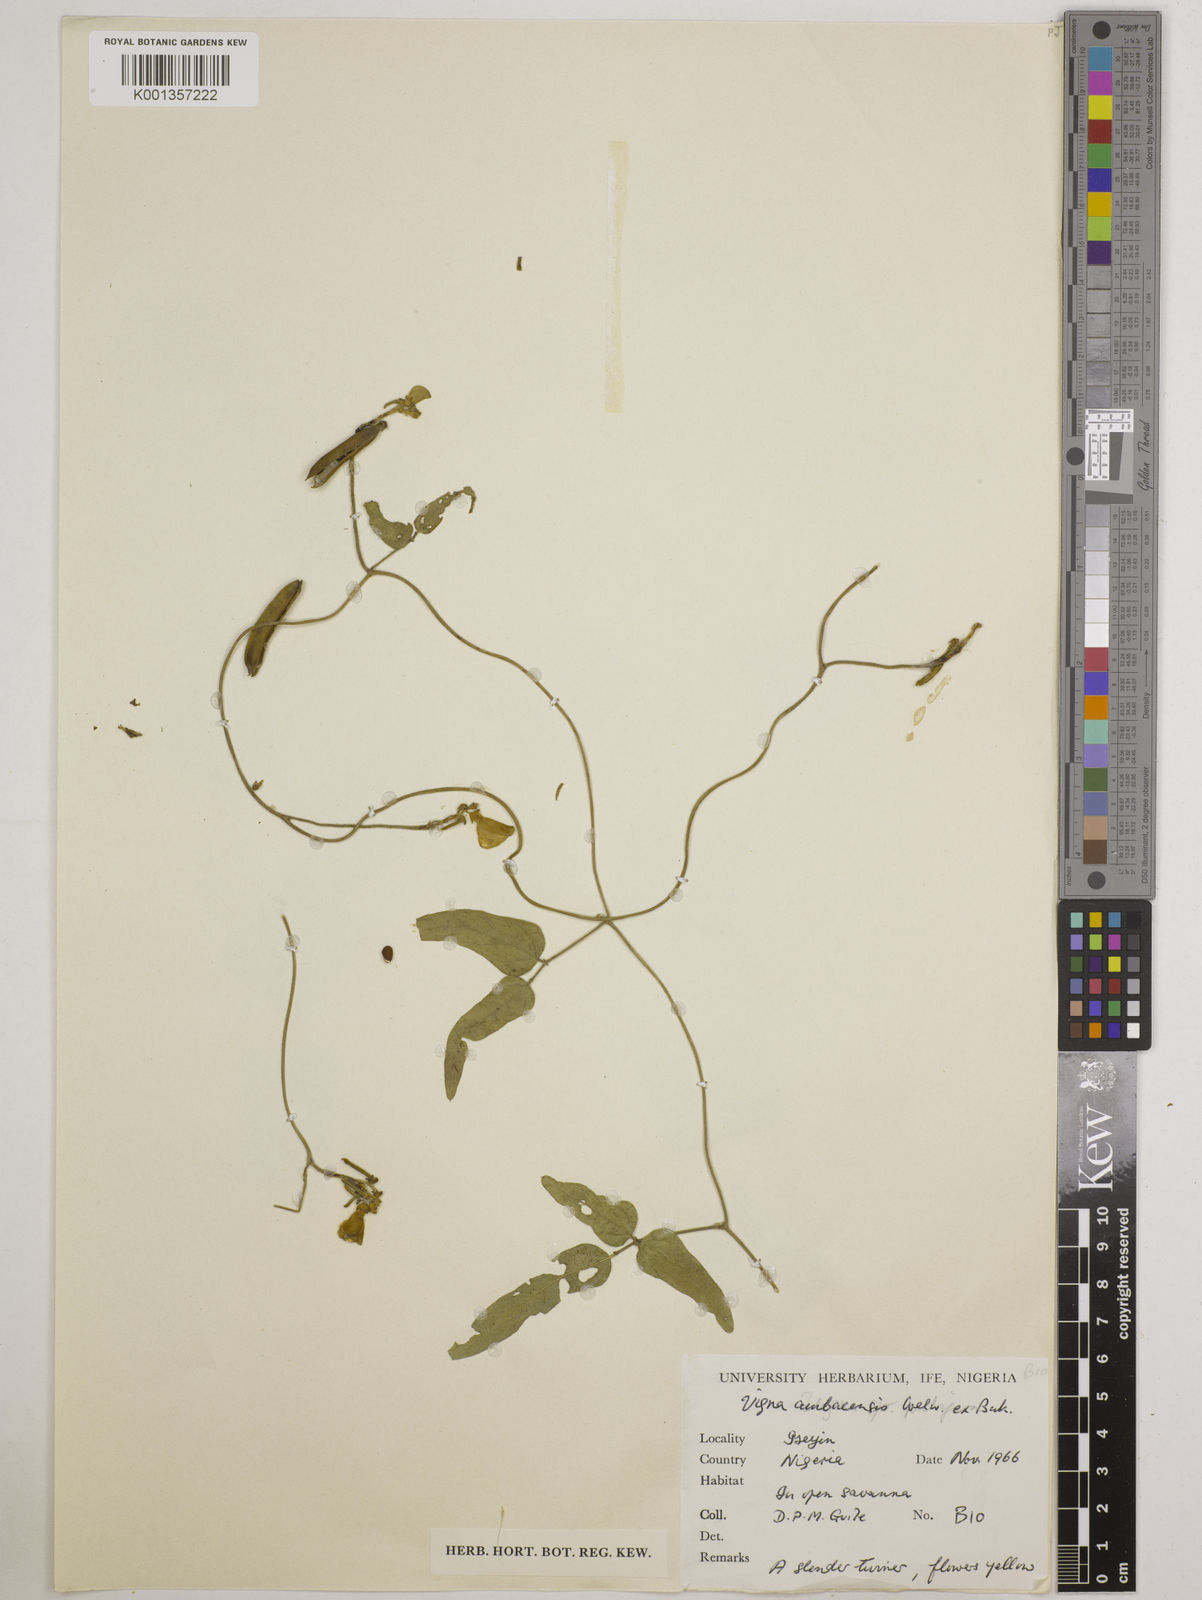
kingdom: Plantae
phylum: Tracheophyta
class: Magnoliopsida
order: Fabales
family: Fabaceae
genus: Vigna
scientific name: Vigna ambacensis
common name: Tsarkiyan zomo
